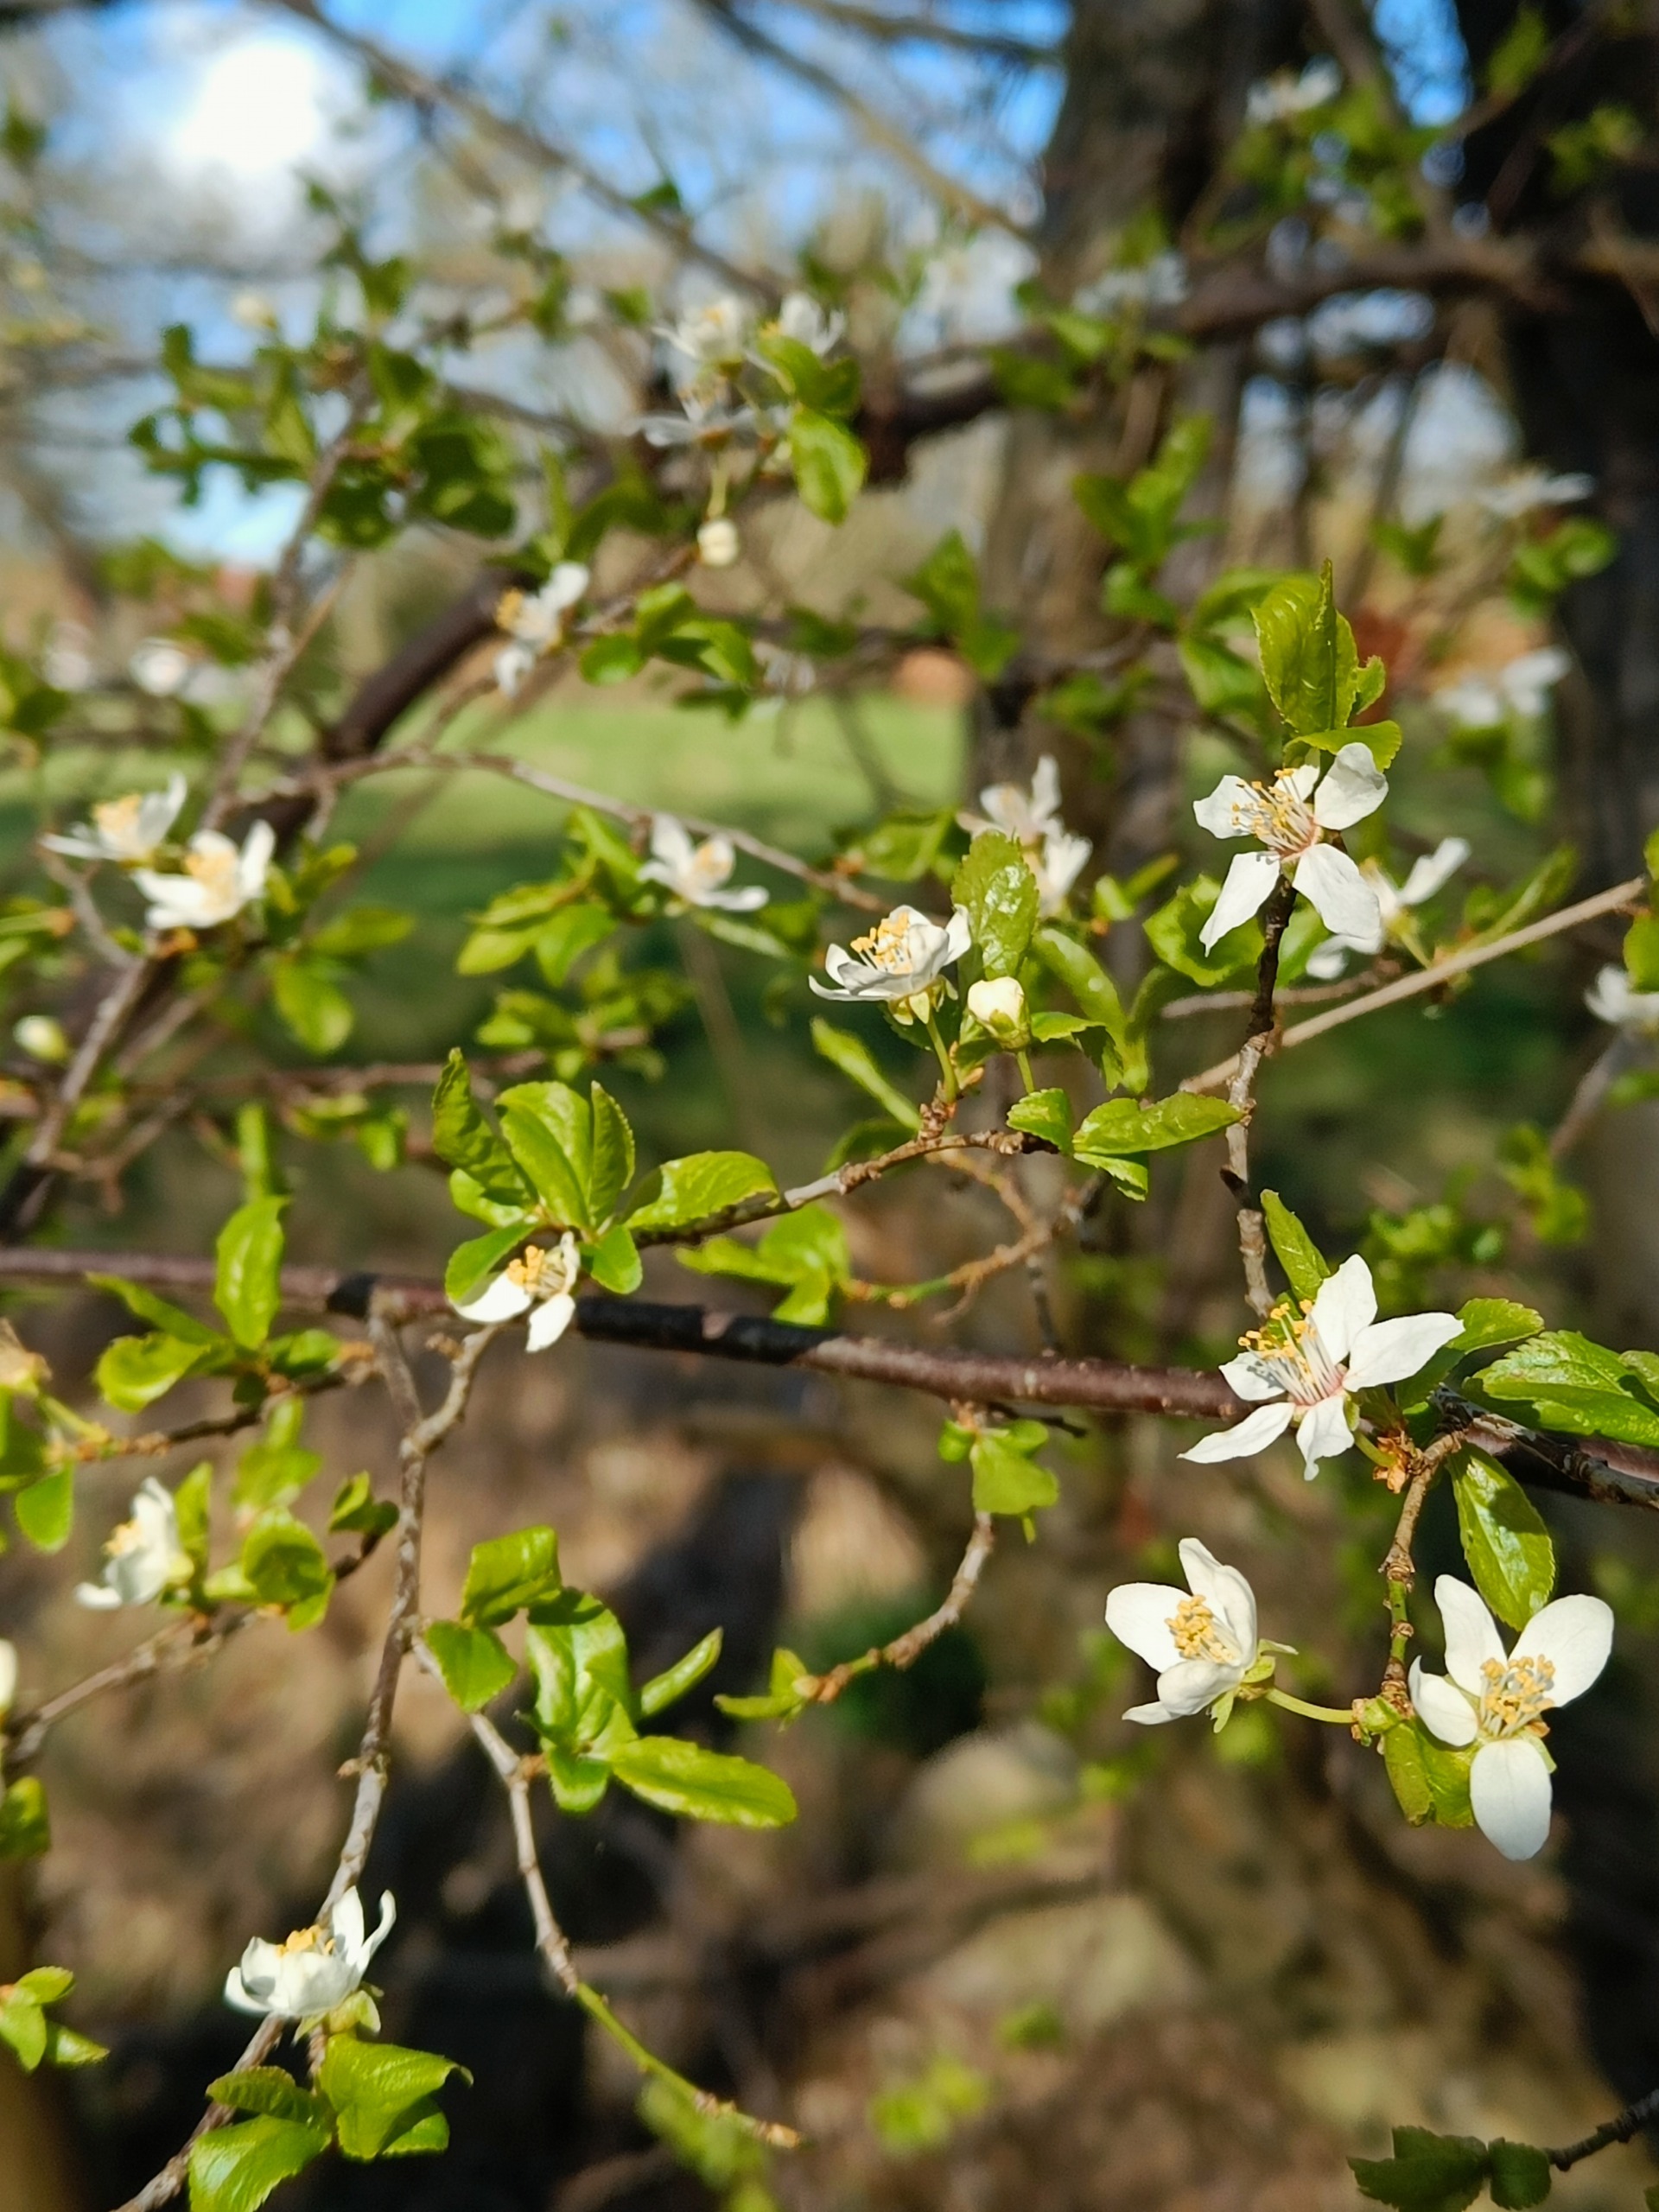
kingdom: Plantae
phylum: Tracheophyta
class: Magnoliopsida
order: Rosales
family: Rosaceae
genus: Prunus
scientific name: Prunus cerasifera
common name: Mirabel
